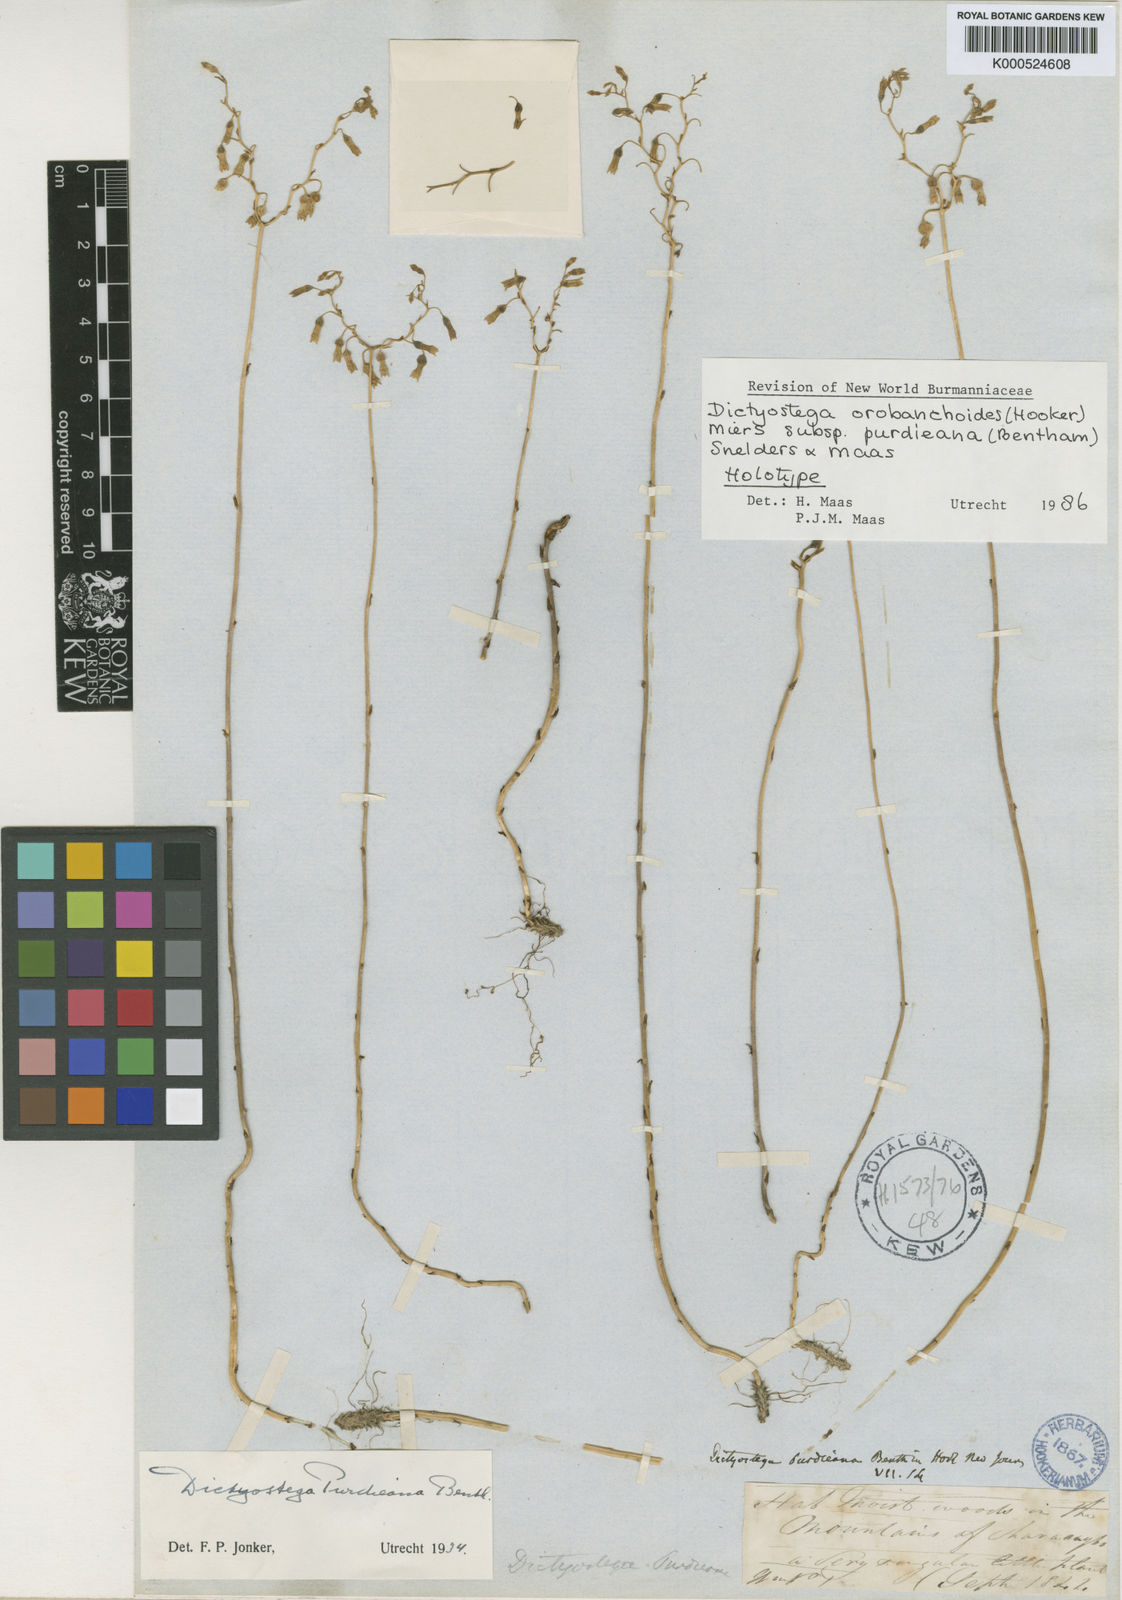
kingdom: Plantae
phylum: Tracheophyta
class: Liliopsida
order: Dioscoreales
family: Burmanniaceae
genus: Dictyostega
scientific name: Dictyostega orobanchoides
